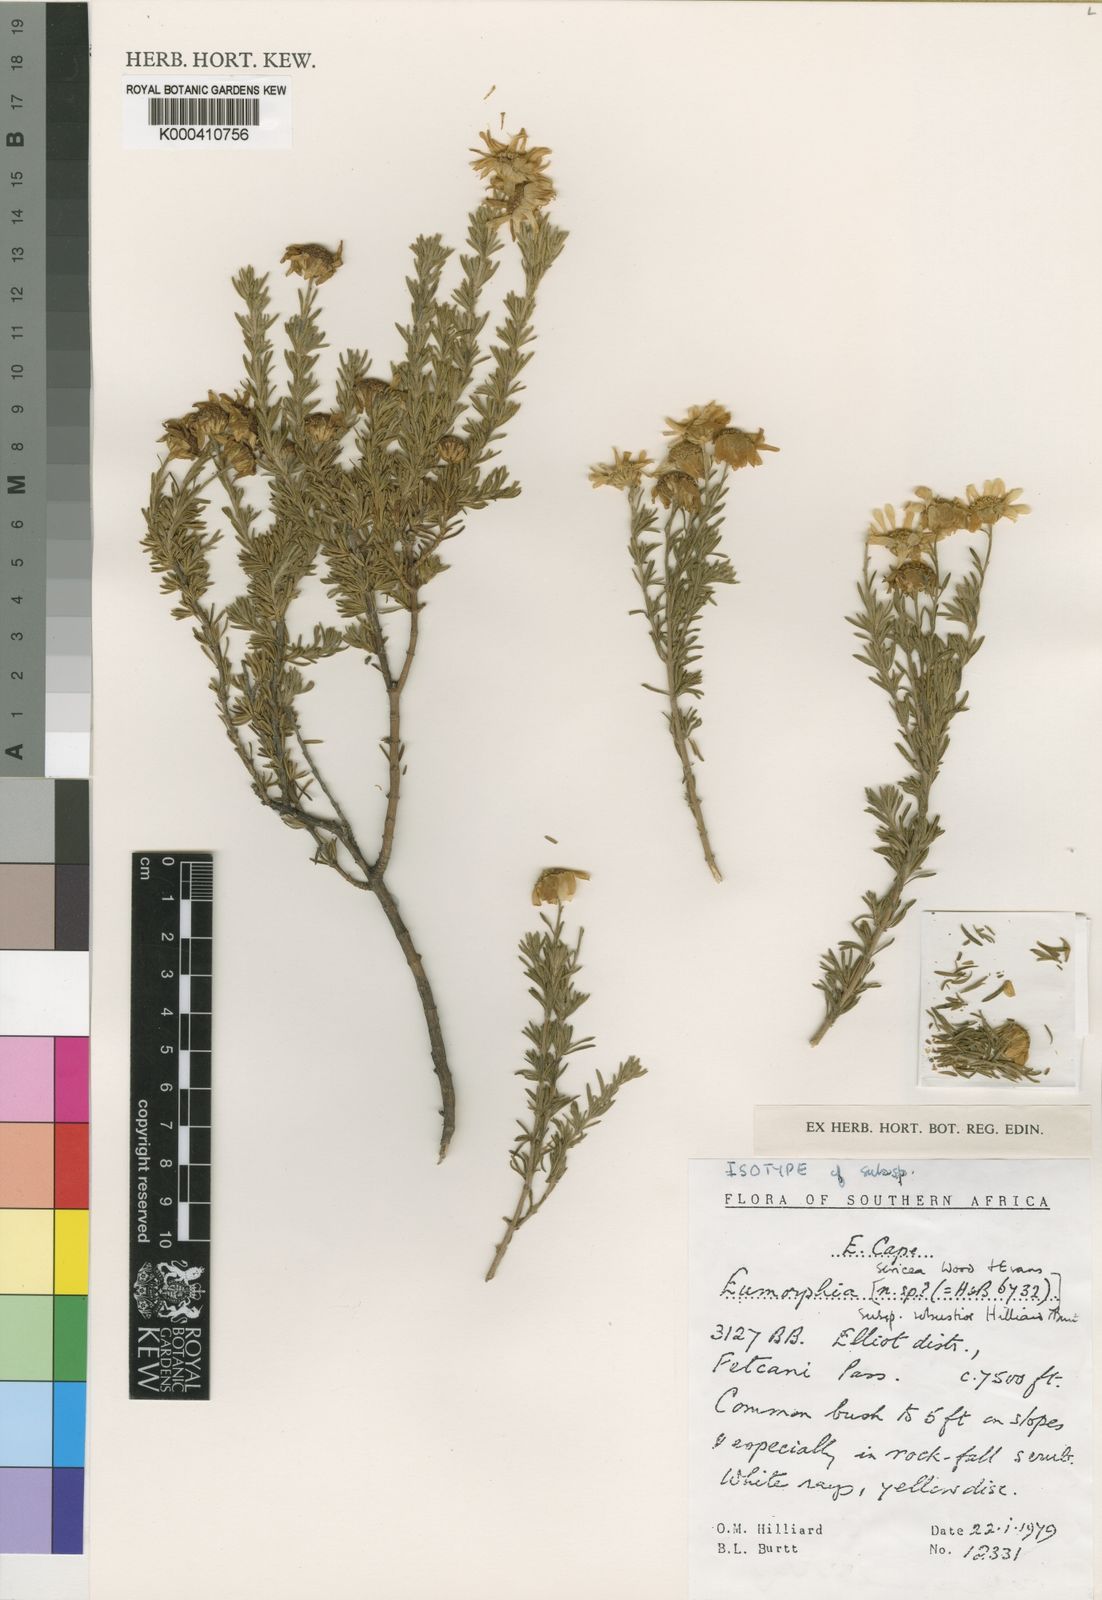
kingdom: Plantae
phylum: Tracheophyta
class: Magnoliopsida
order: Asterales
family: Asteraceae
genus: Eumorphia
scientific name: Eumorphia sericea
